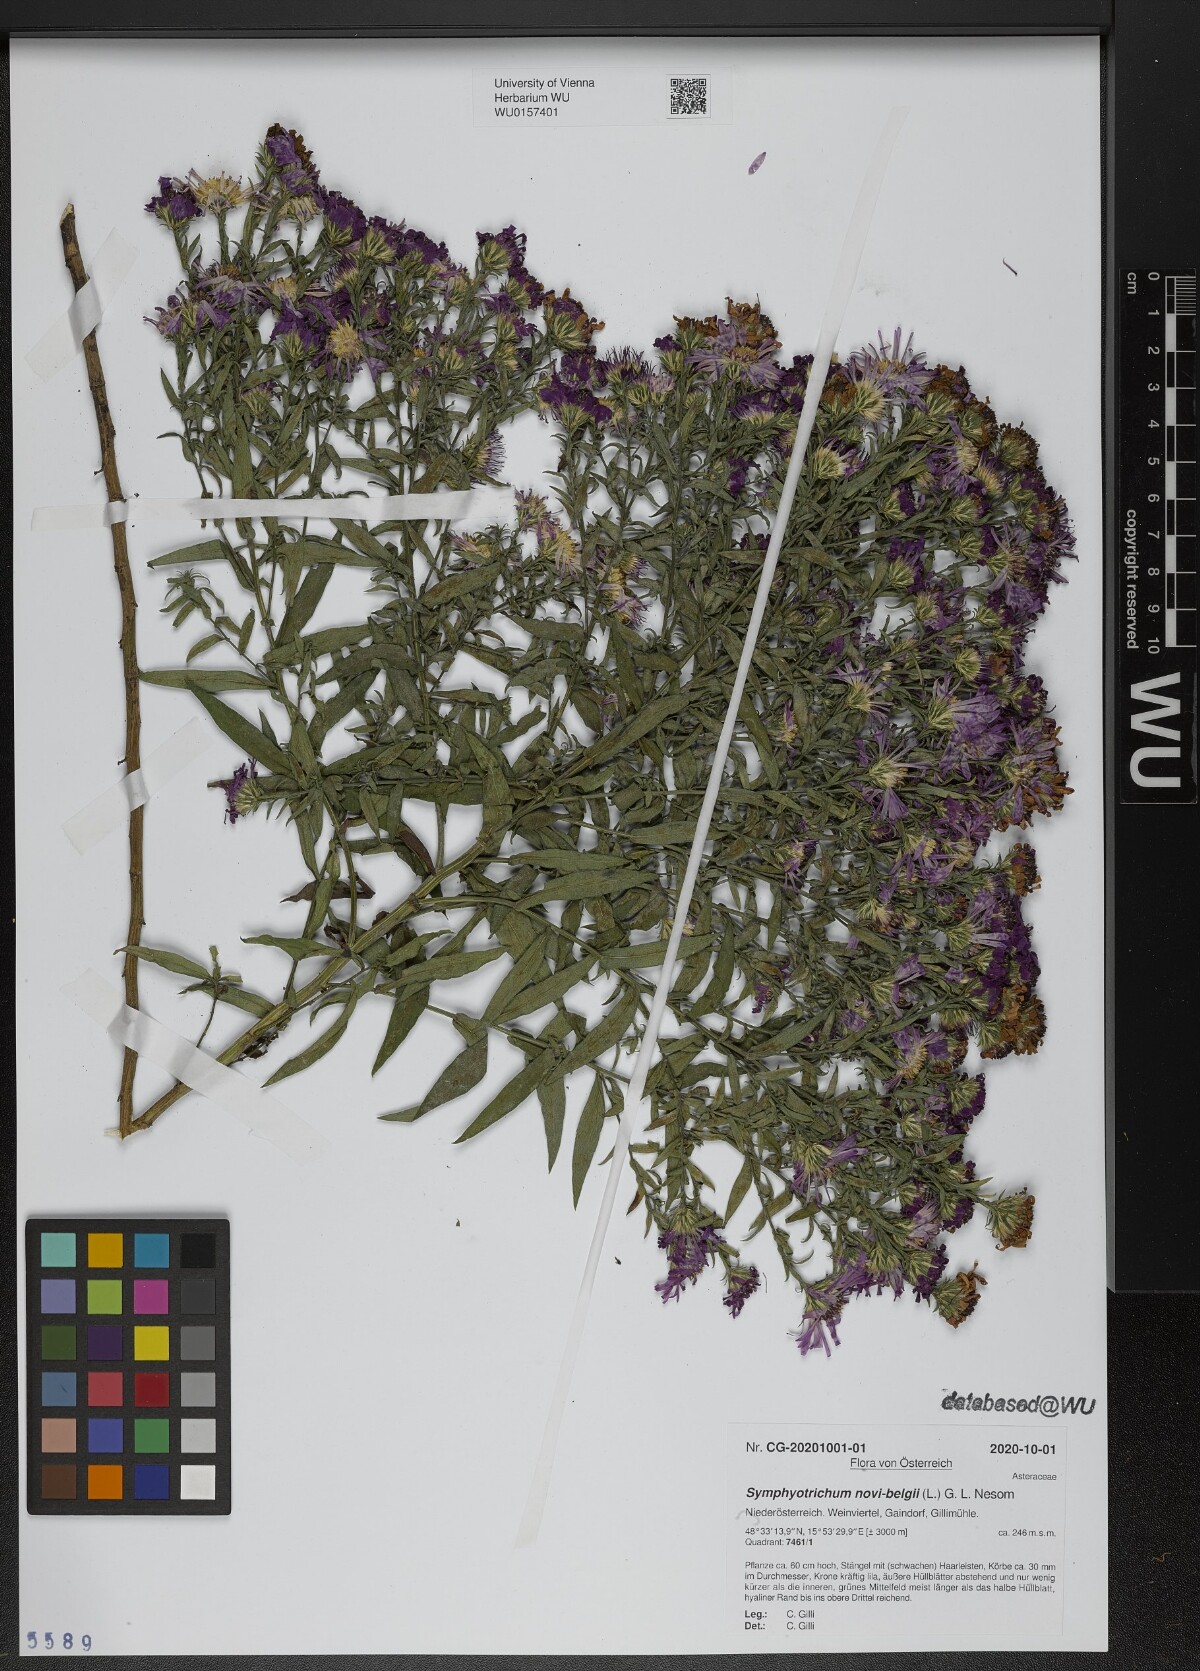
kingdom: Plantae
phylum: Tracheophyta
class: Magnoliopsida
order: Asterales
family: Asteraceae
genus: Symphyotrichum
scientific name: Symphyotrichum novi-belgii
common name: Michaelmas daisy
